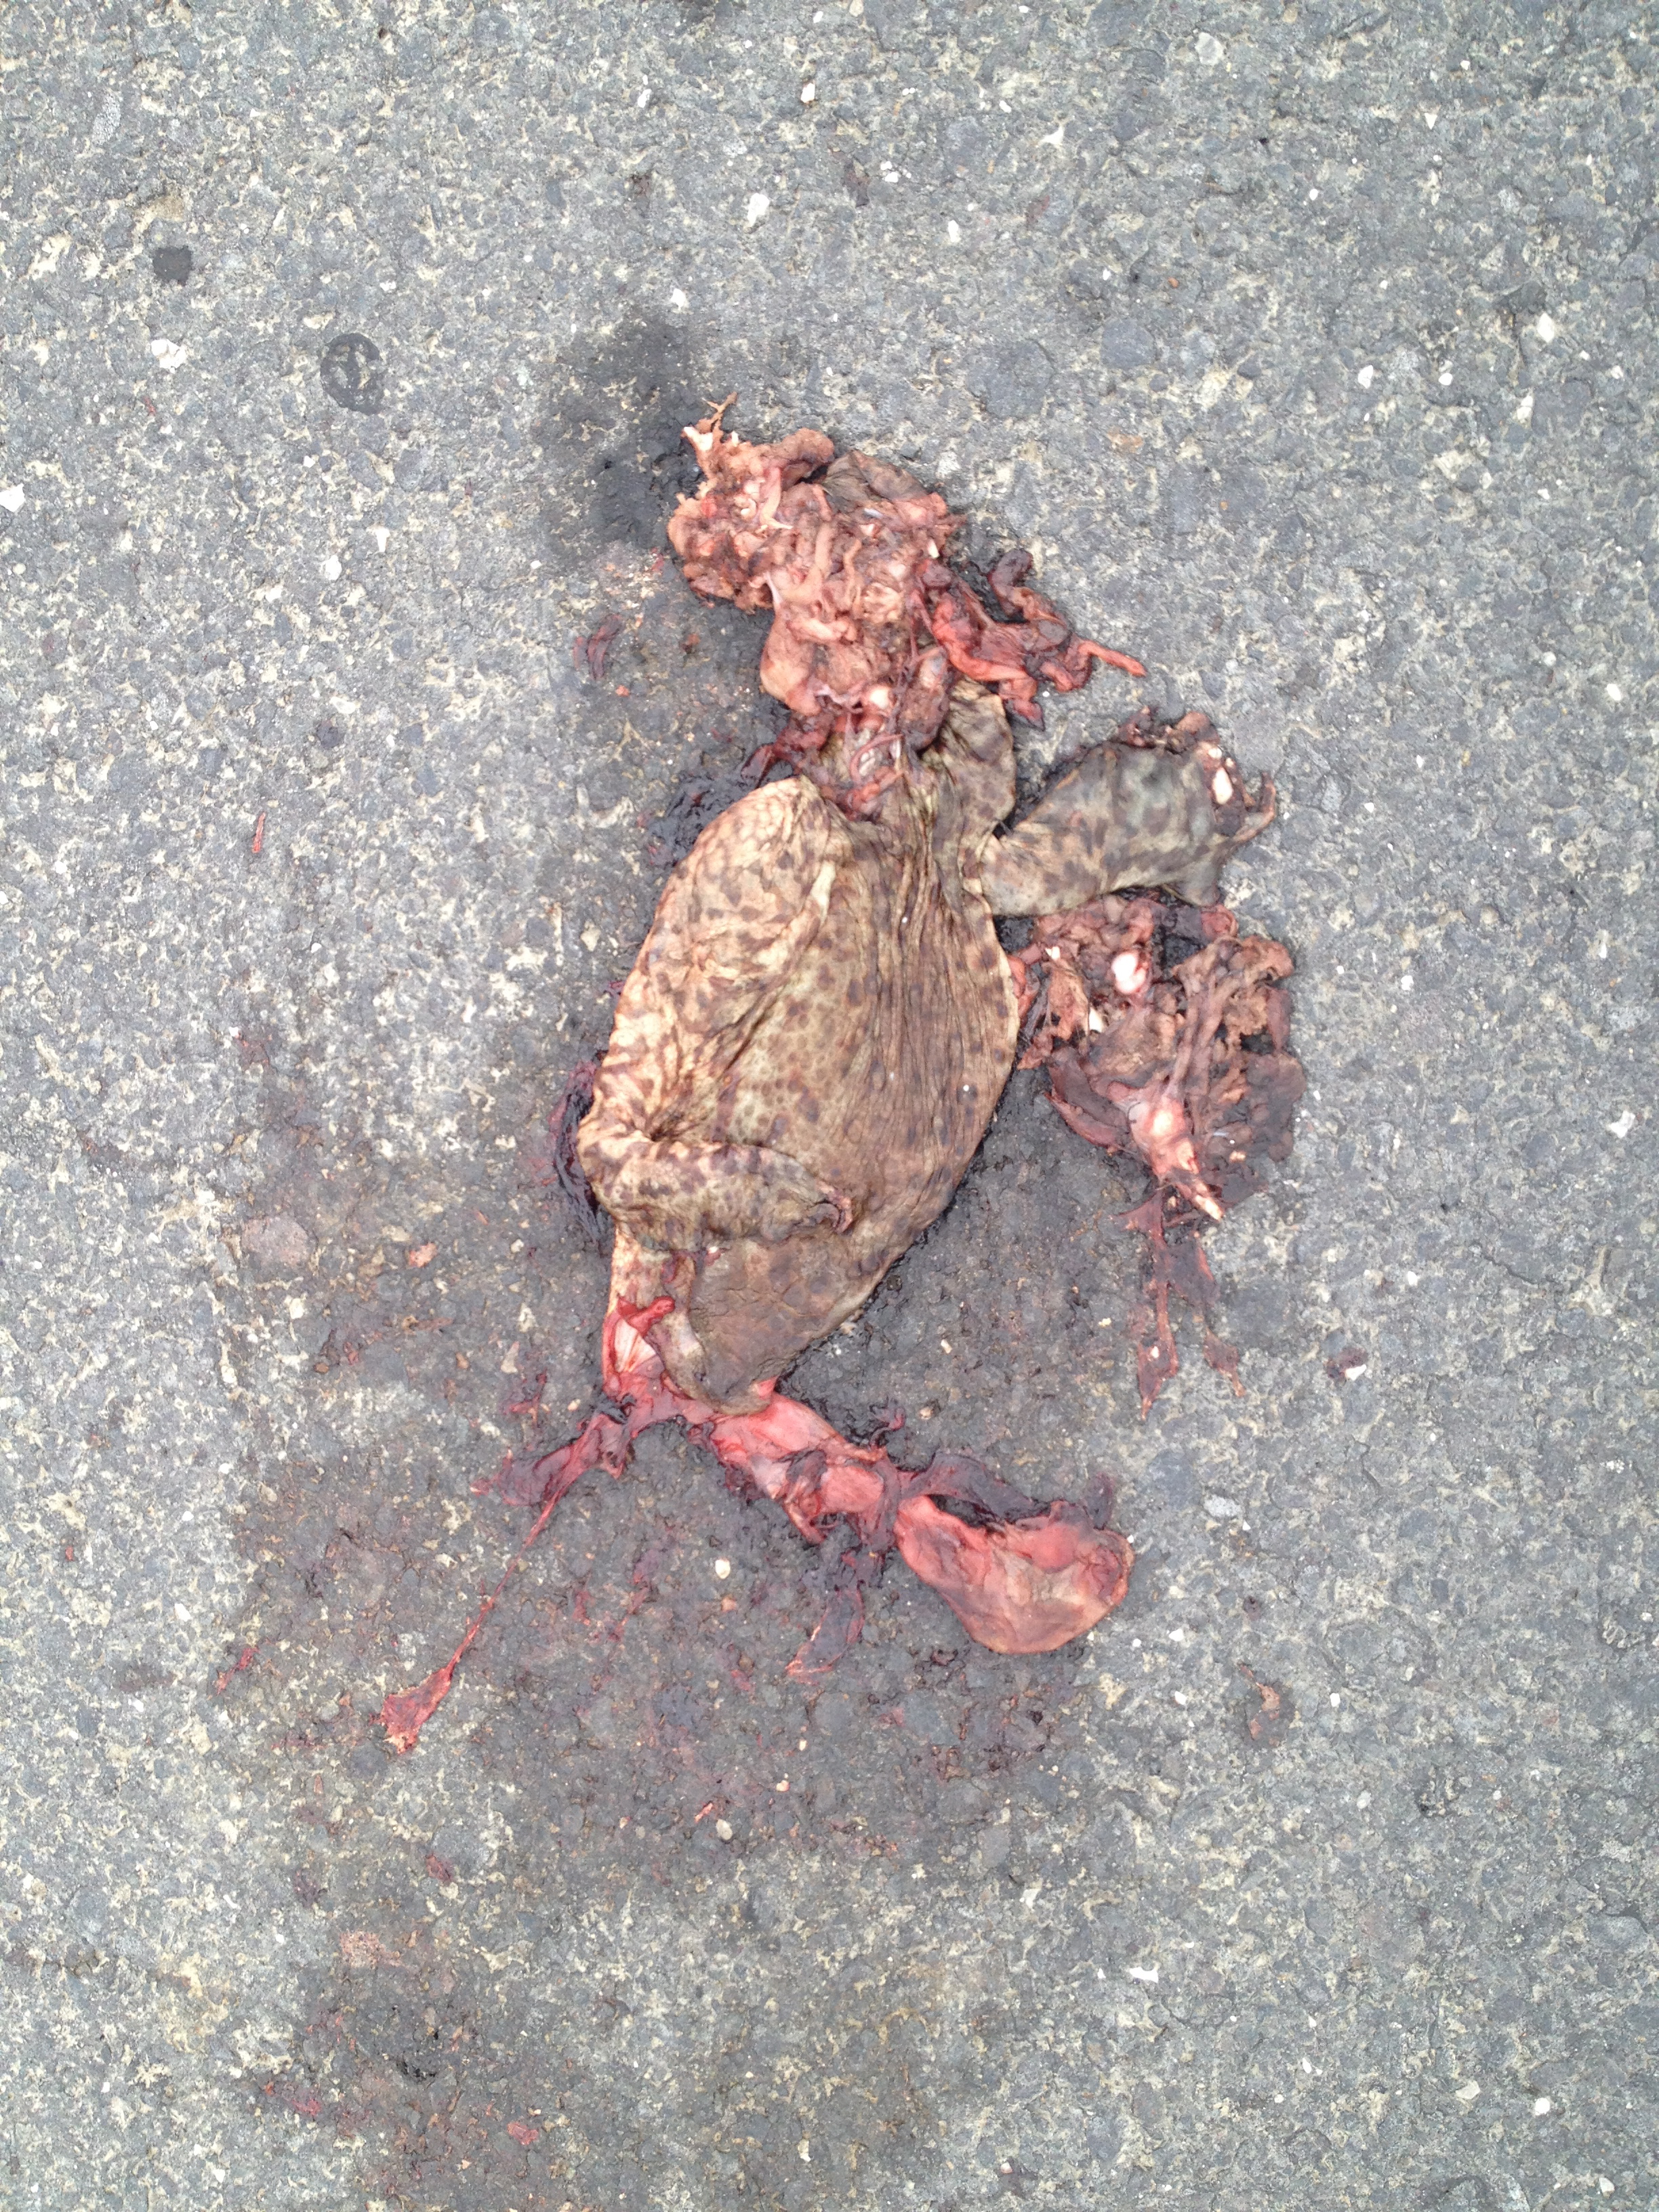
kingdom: Animalia
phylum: Chordata
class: Amphibia
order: Anura
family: Bufonidae
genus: Bufo
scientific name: Bufo bufo
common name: Common toad
